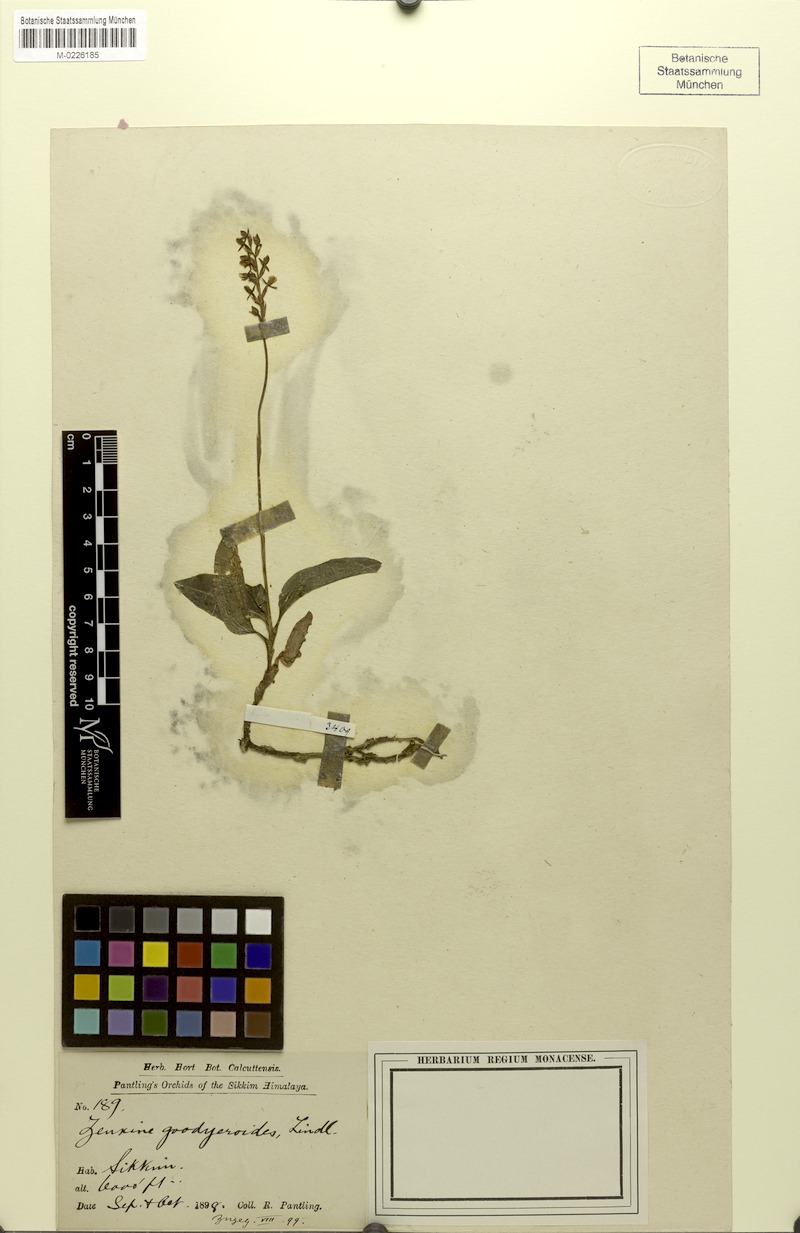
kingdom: Plantae
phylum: Tracheophyta
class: Liliopsida
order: Asparagales
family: Orchidaceae
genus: Zeuxine
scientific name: Zeuxine goodyeroides
